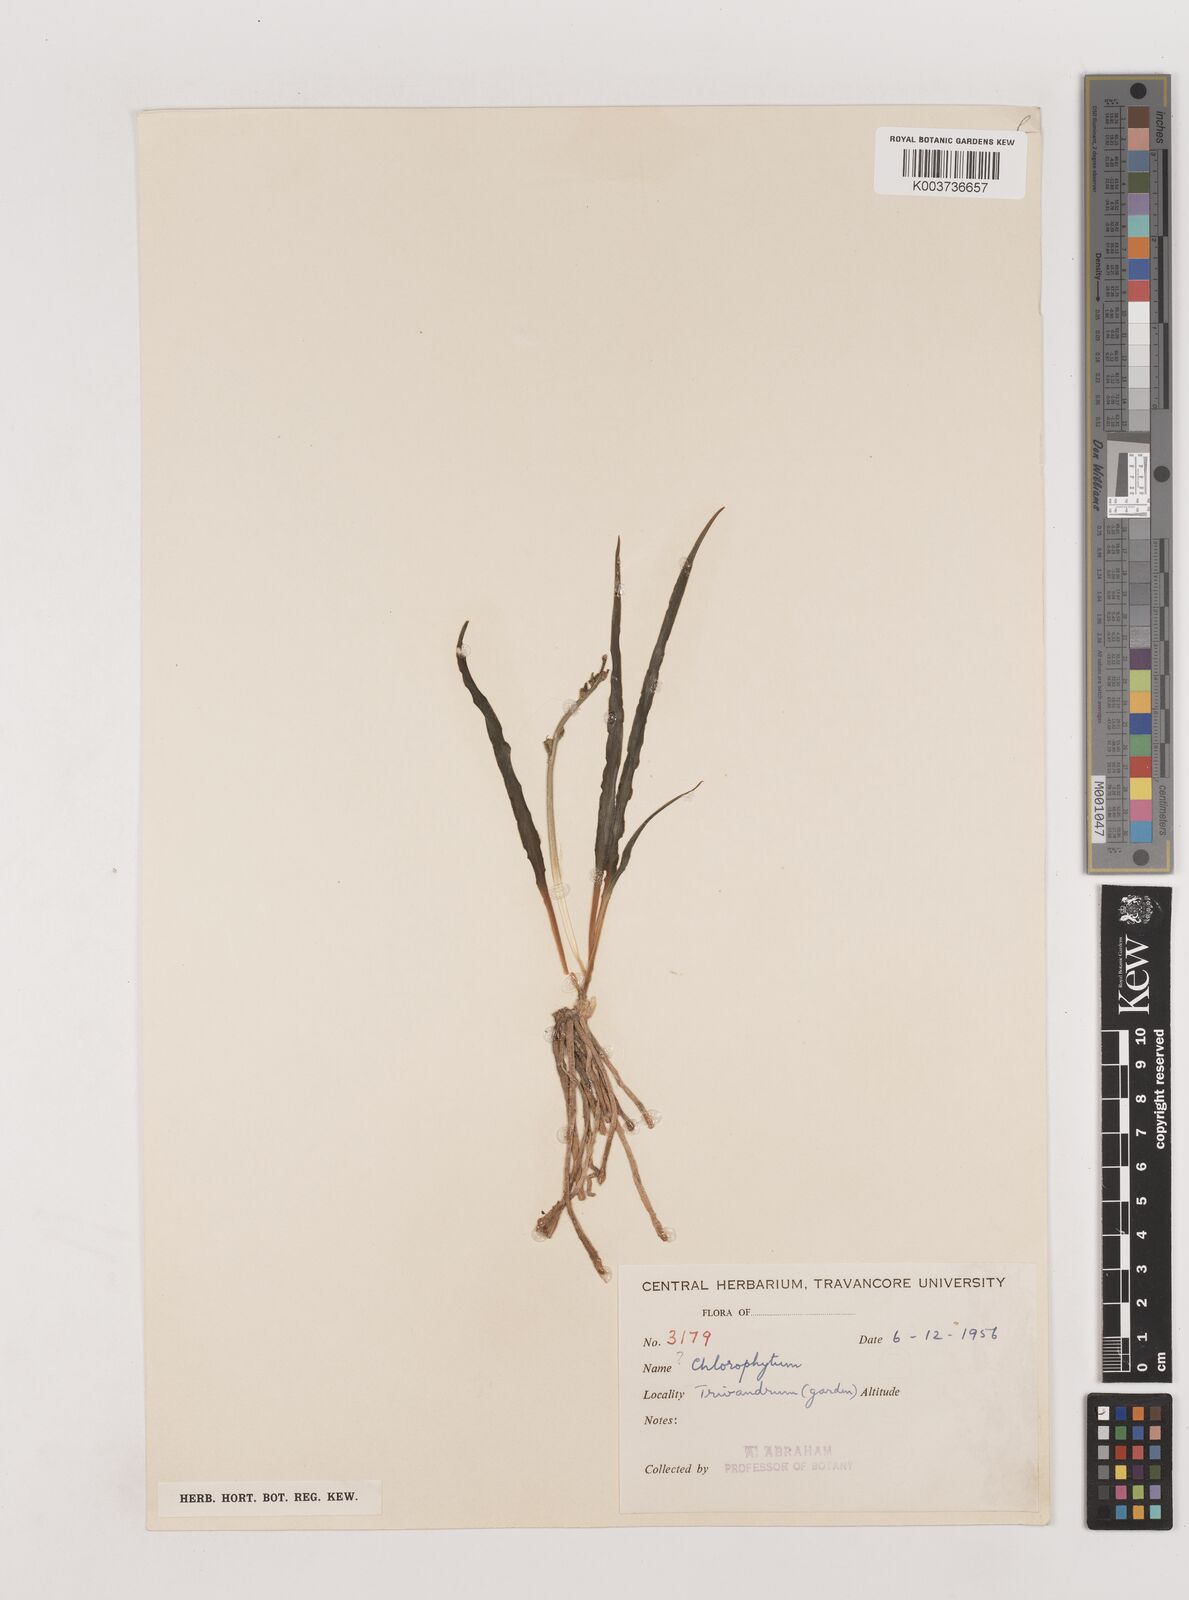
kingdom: Plantae
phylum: Tracheophyta
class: Liliopsida
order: Asparagales
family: Asparagaceae
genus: Chlorophytum
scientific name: Chlorophytum
